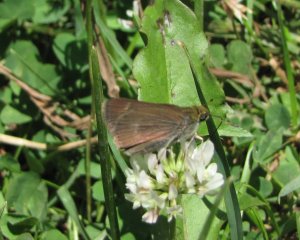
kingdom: Animalia
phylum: Arthropoda
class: Insecta
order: Lepidoptera
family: Hesperiidae
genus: Euphyes
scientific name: Euphyes vestris
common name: Dun Skipper
